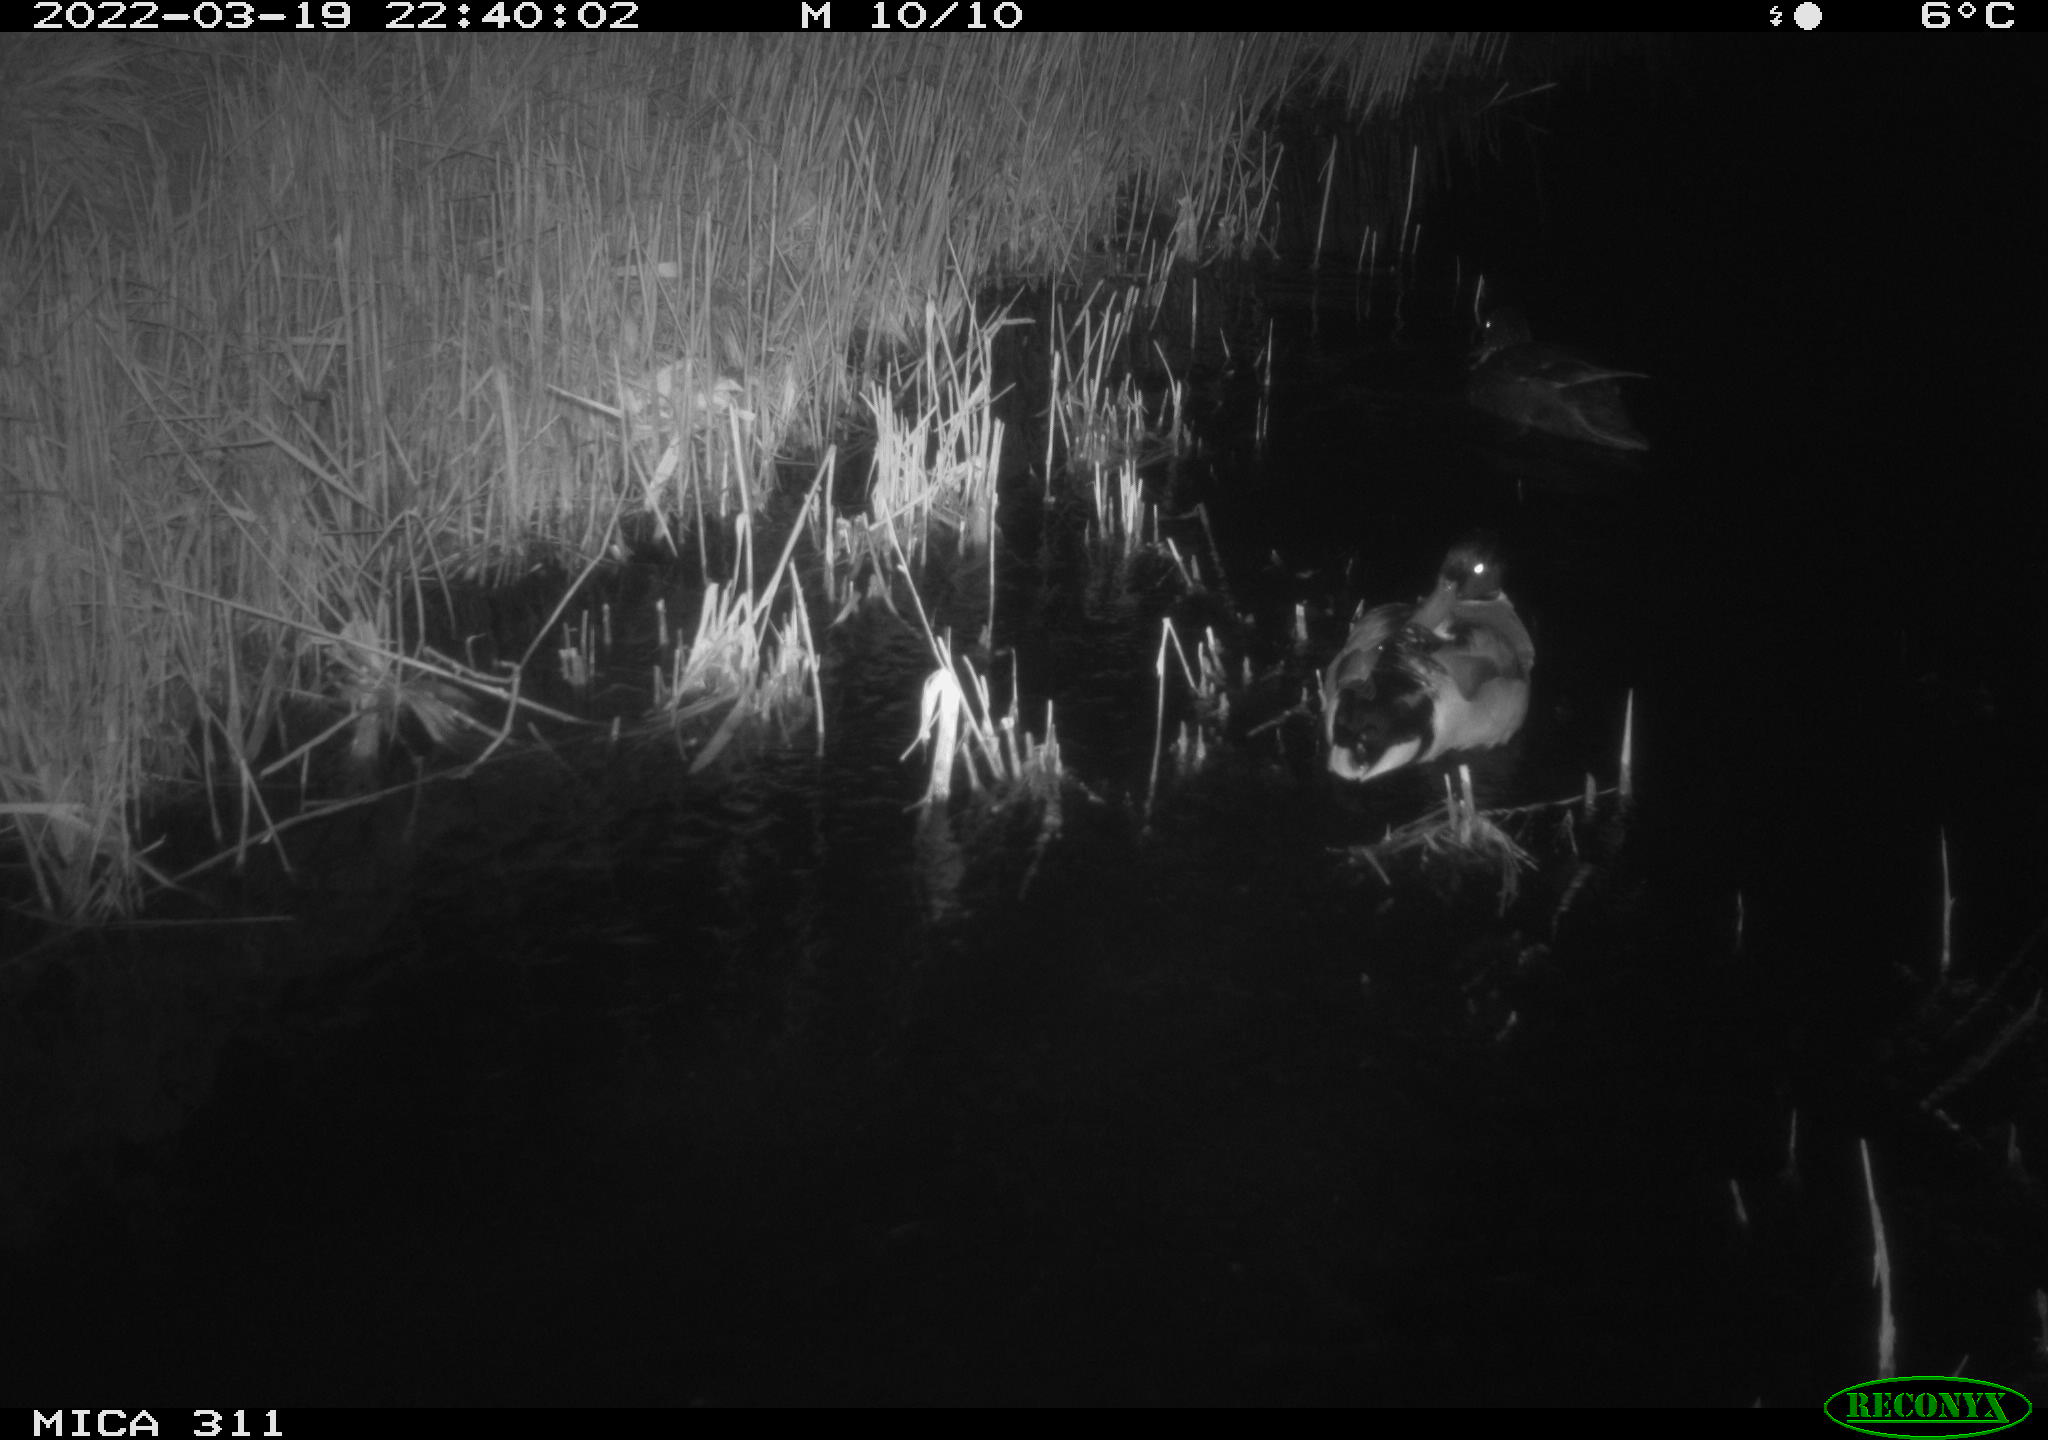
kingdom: Animalia
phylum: Chordata
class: Aves
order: Anseriformes
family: Anatidae
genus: Anas
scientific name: Anas platyrhynchos
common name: Mallard
